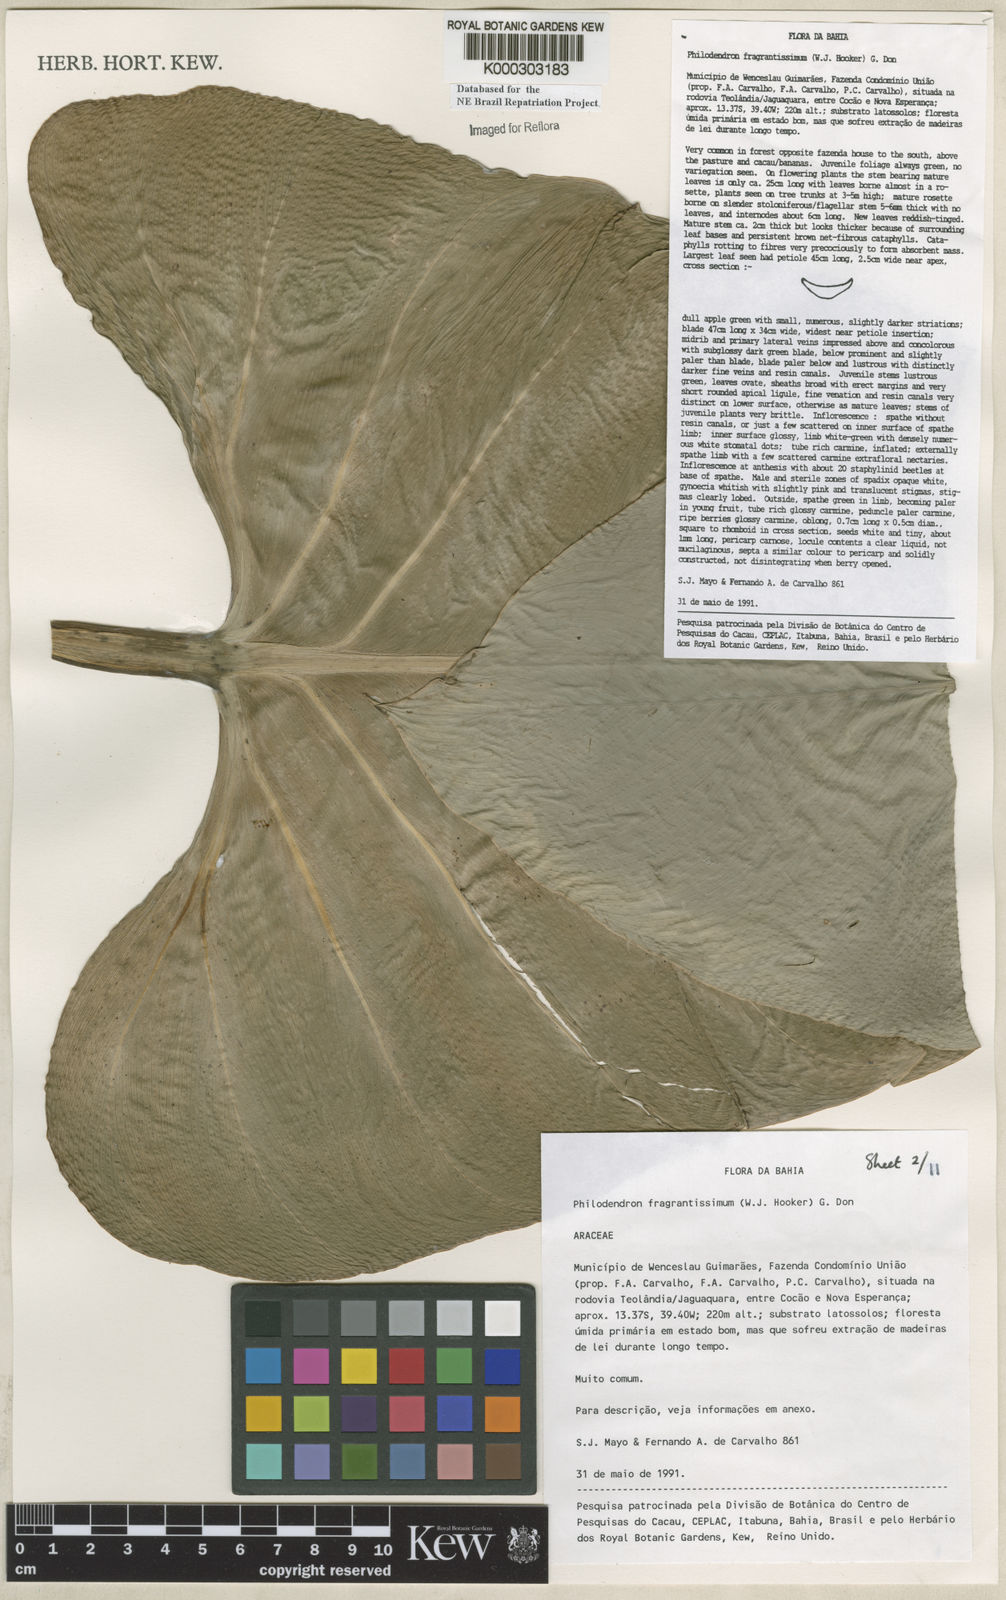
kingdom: Plantae
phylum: Tracheophyta
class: Liliopsida
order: Alismatales
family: Araceae
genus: Philodendron
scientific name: Philodendron fragrantissimum
